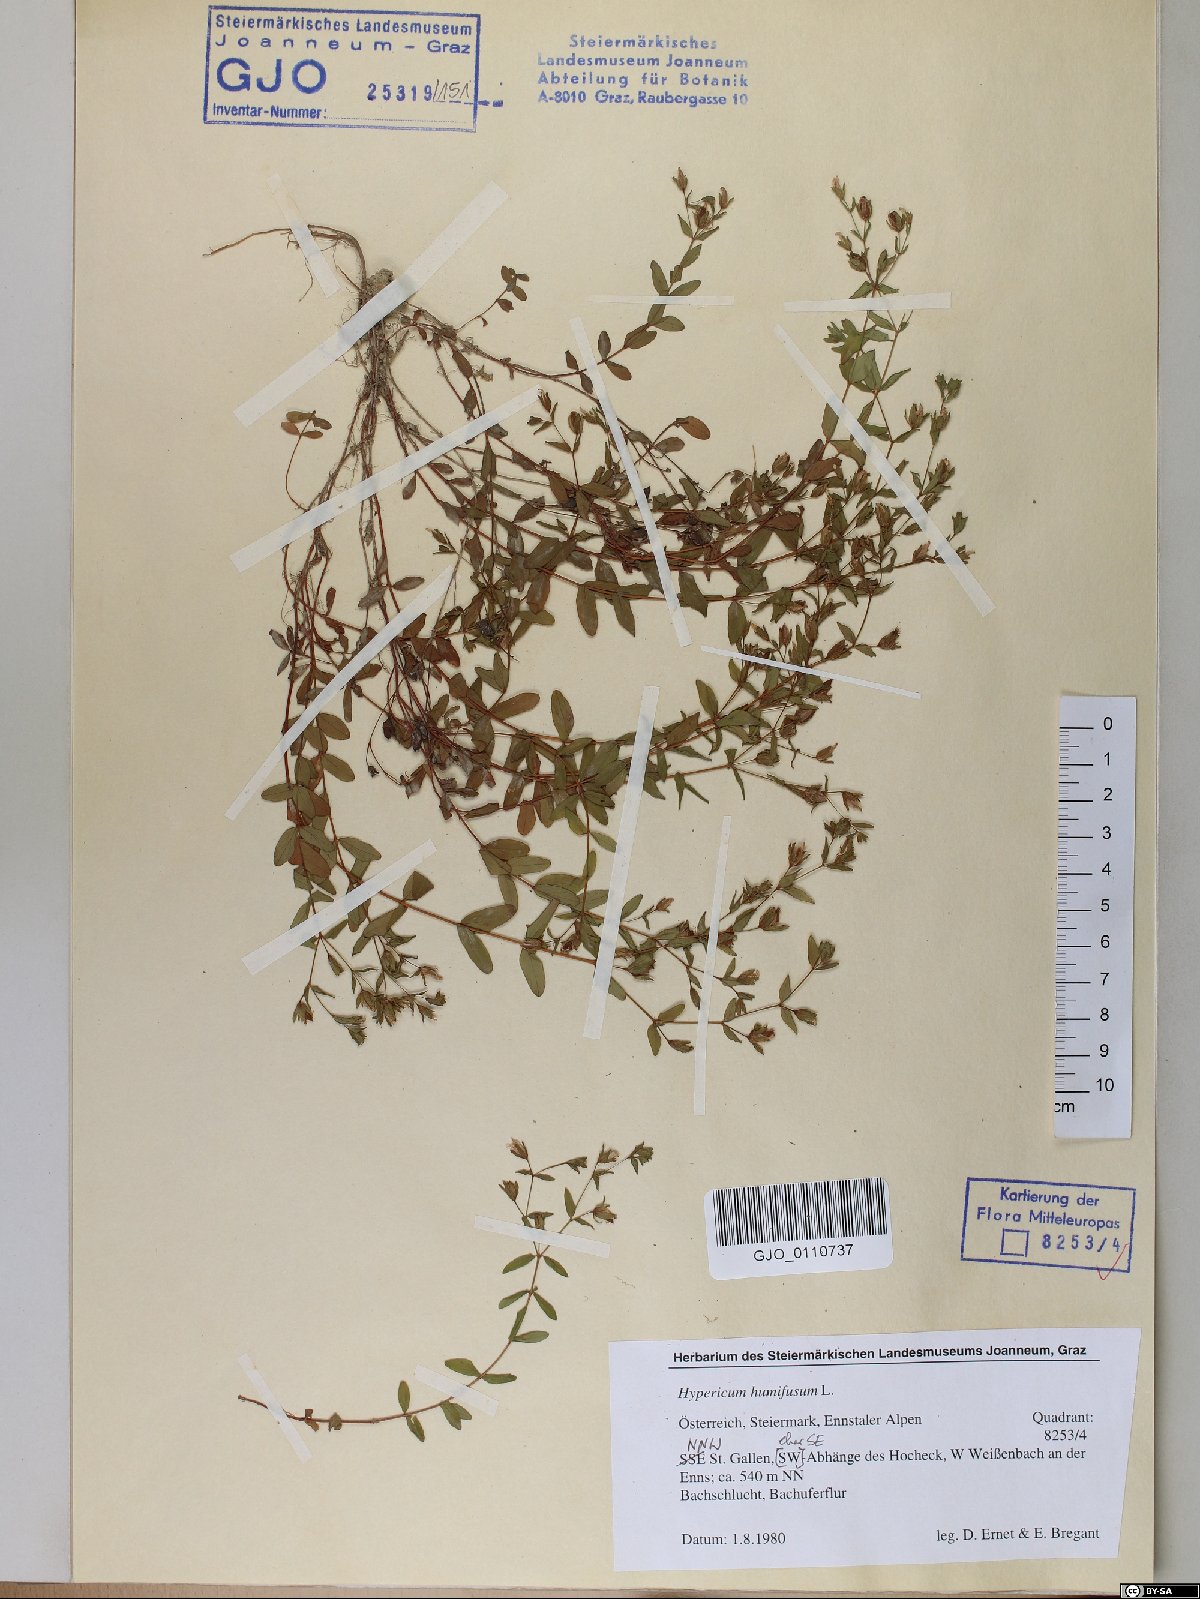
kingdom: Plantae
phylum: Tracheophyta
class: Magnoliopsida
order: Malpighiales
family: Hypericaceae
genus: Hypericum
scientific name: Hypericum humifusum
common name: Trailing st. john's-wort
